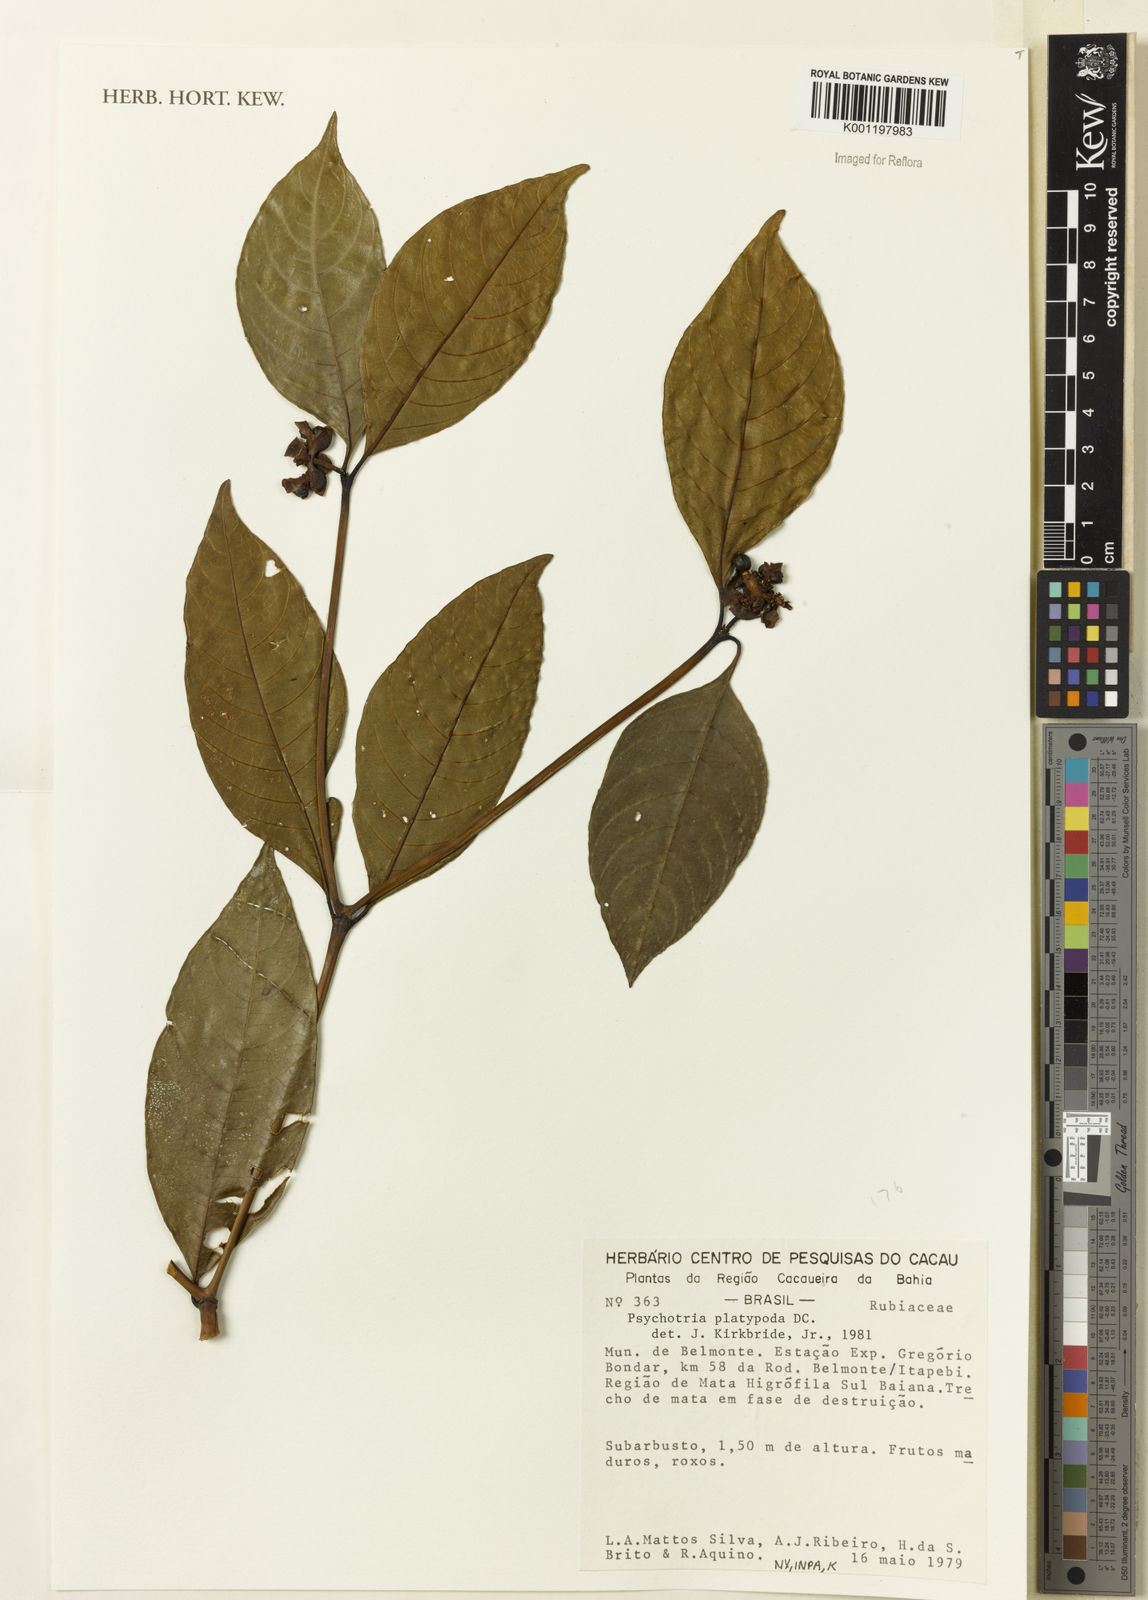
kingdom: Plantae
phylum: Tracheophyta
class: Magnoliopsida
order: Gentianales
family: Rubiaceae
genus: Palicourea
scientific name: Palicourea dichotoma
